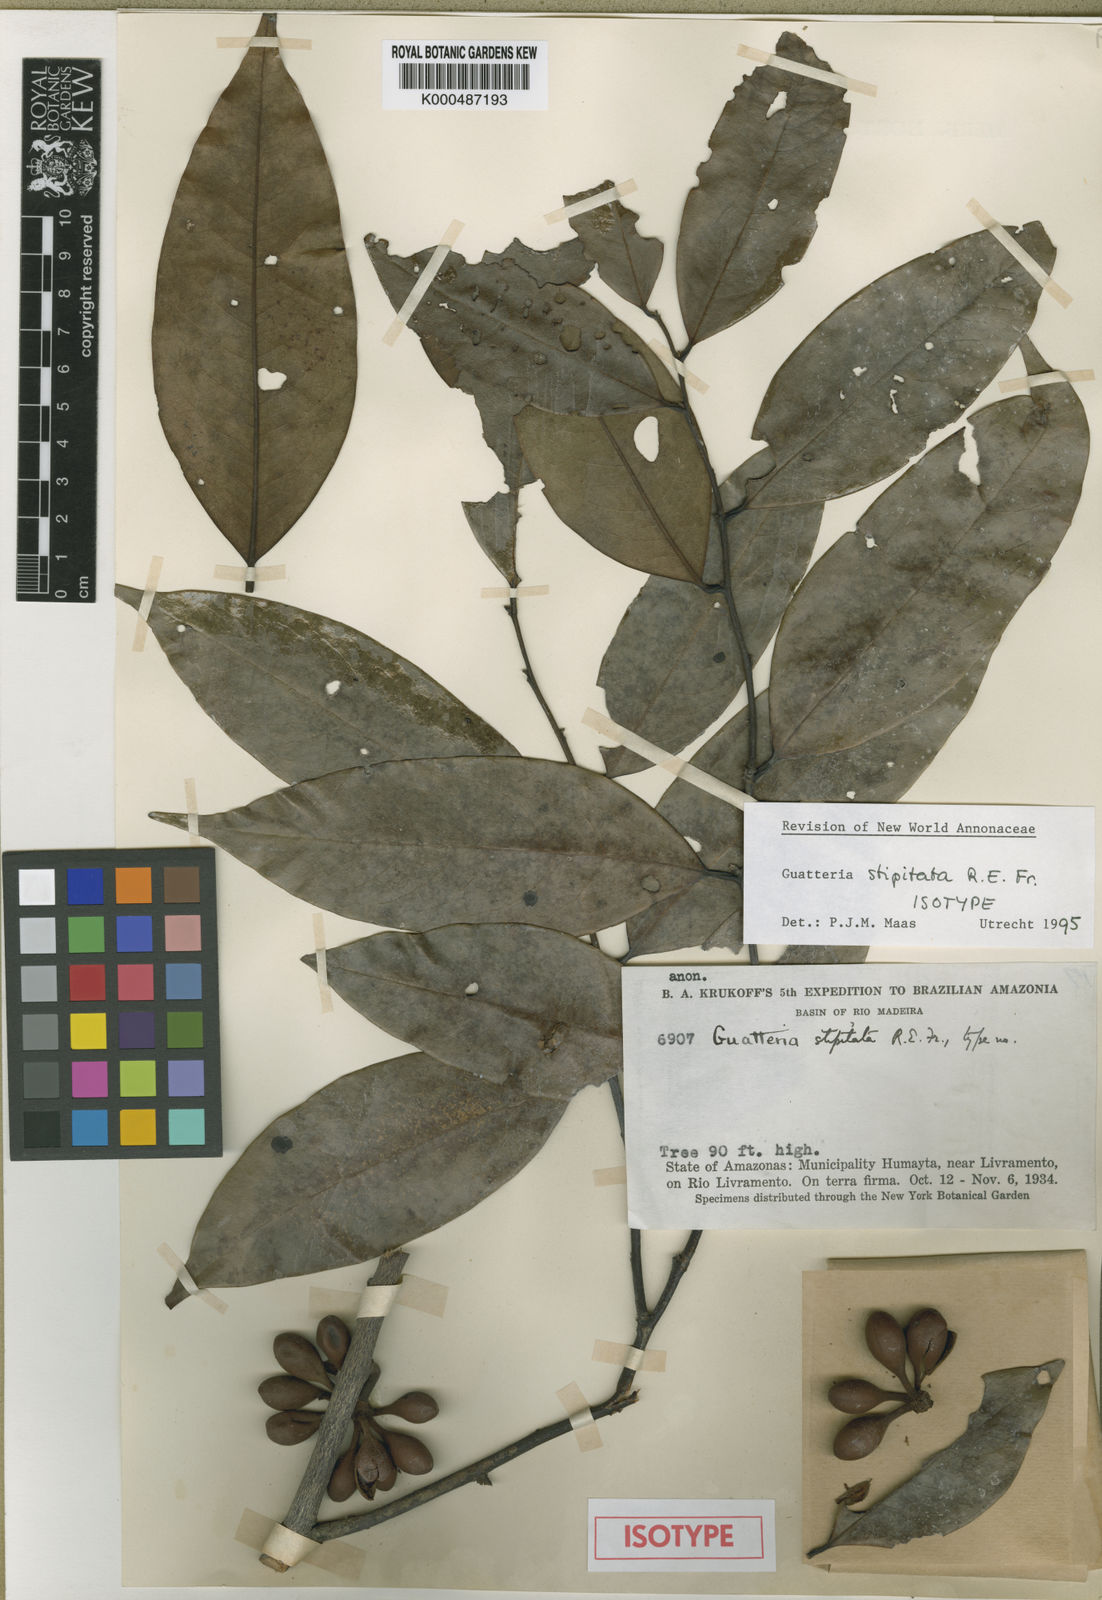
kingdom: Plantae
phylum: Tracheophyta
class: Magnoliopsida
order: Magnoliales
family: Annonaceae
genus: Guatteria
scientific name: Guatteria stipitata
